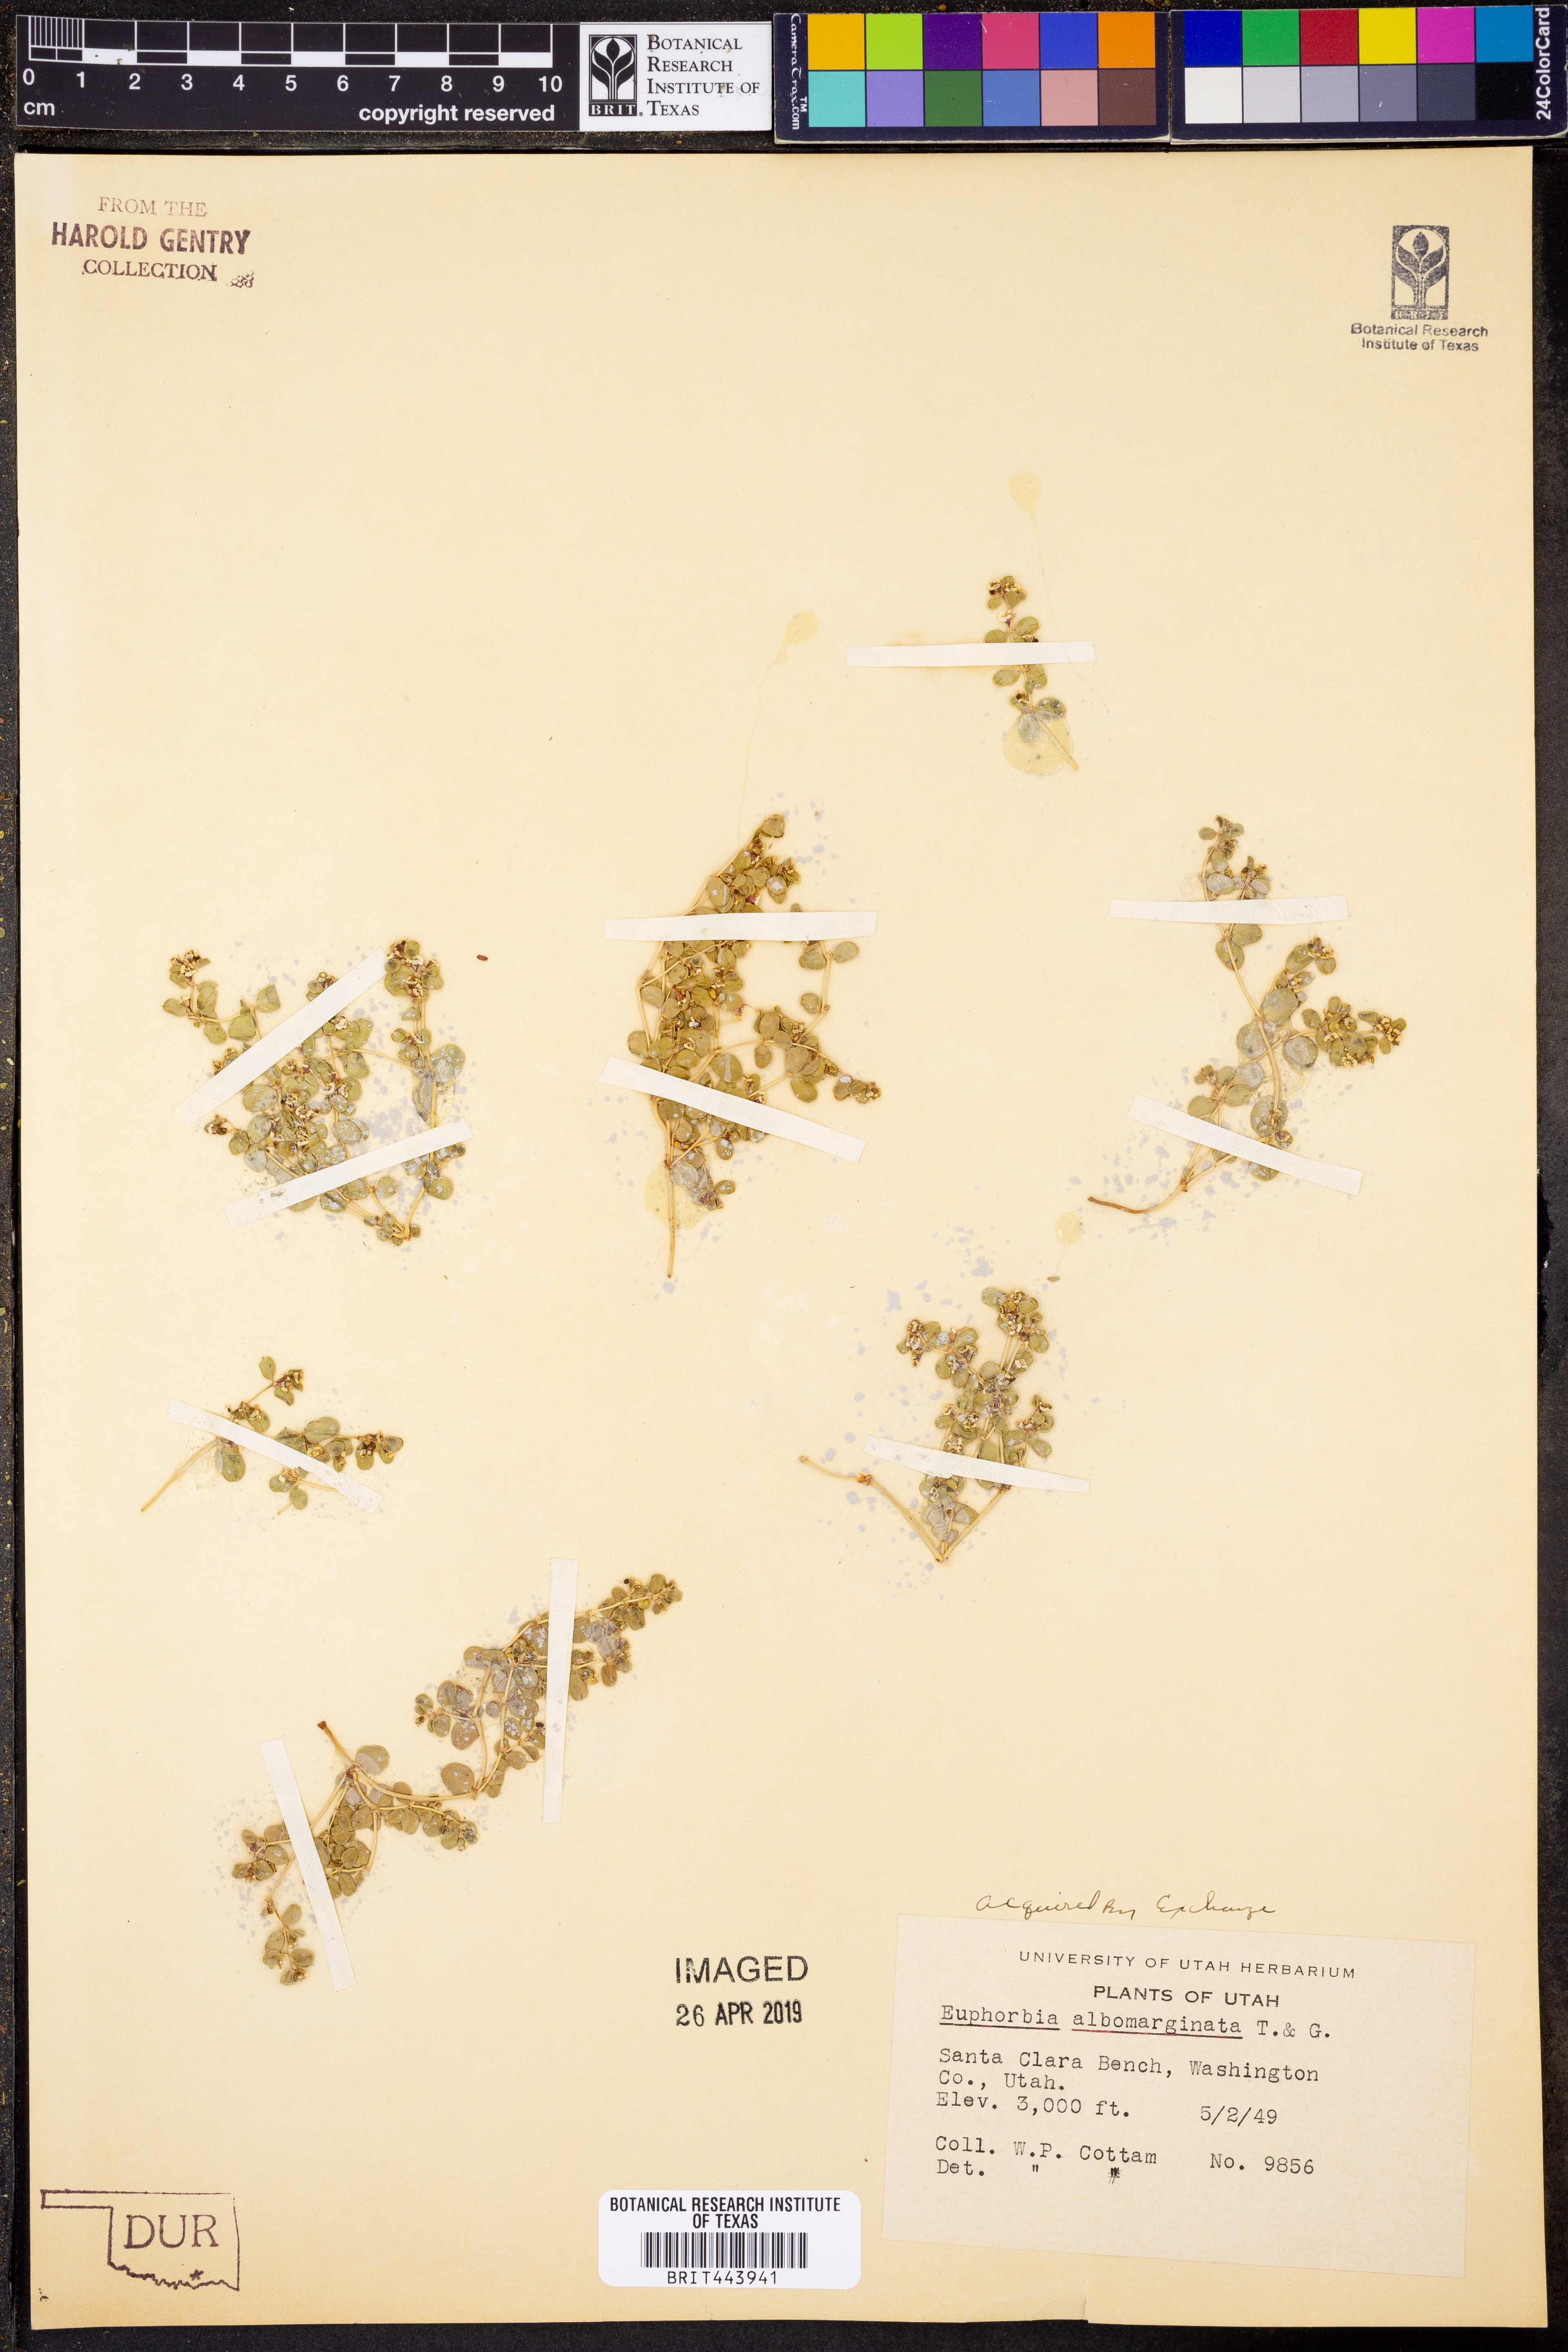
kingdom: Plantae
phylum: Tracheophyta
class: Magnoliopsida
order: Malpighiales
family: Euphorbiaceae
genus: Euphorbia
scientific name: Euphorbia albomarginata
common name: Whitemargin sandmat
